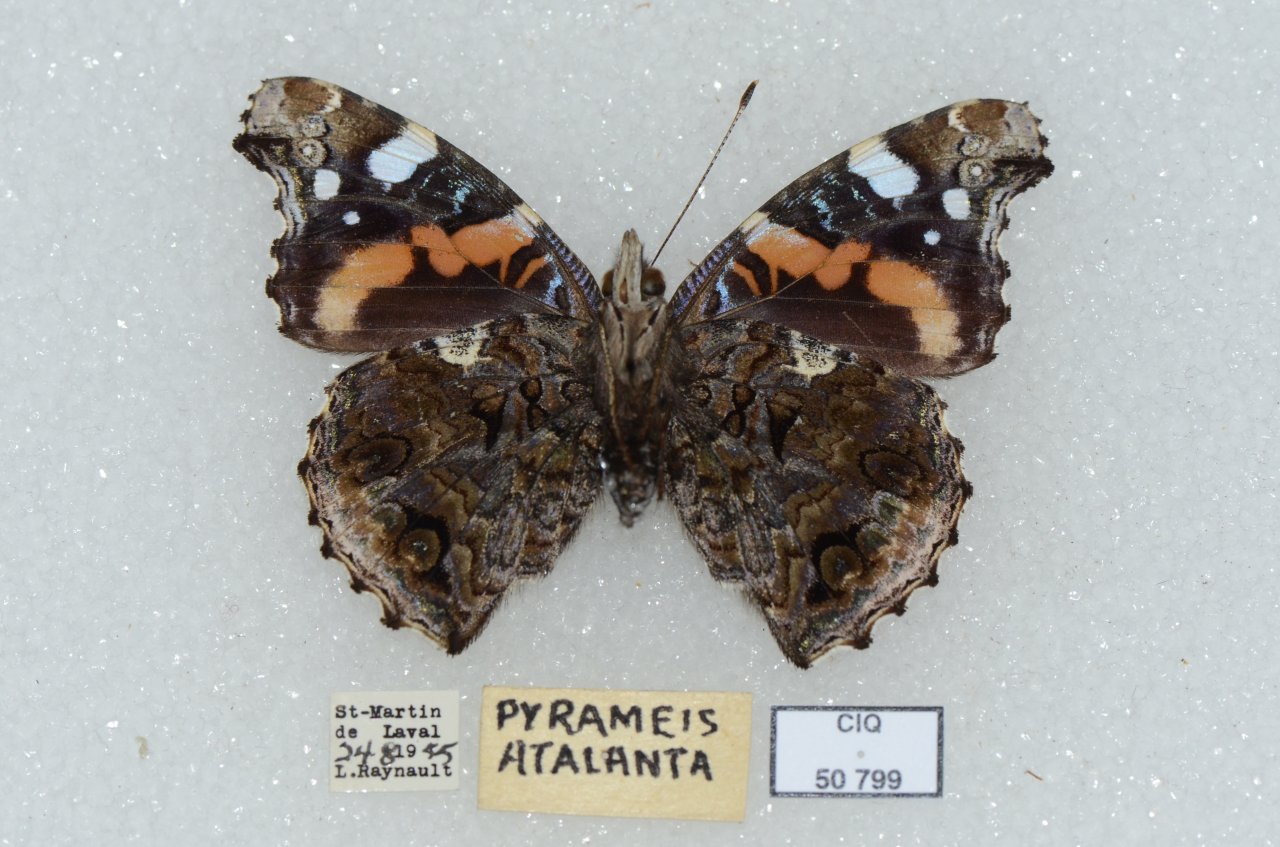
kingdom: Animalia
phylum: Arthropoda
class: Insecta
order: Lepidoptera
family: Nymphalidae
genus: Vanessa
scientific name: Vanessa atalanta
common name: Red Admiral
